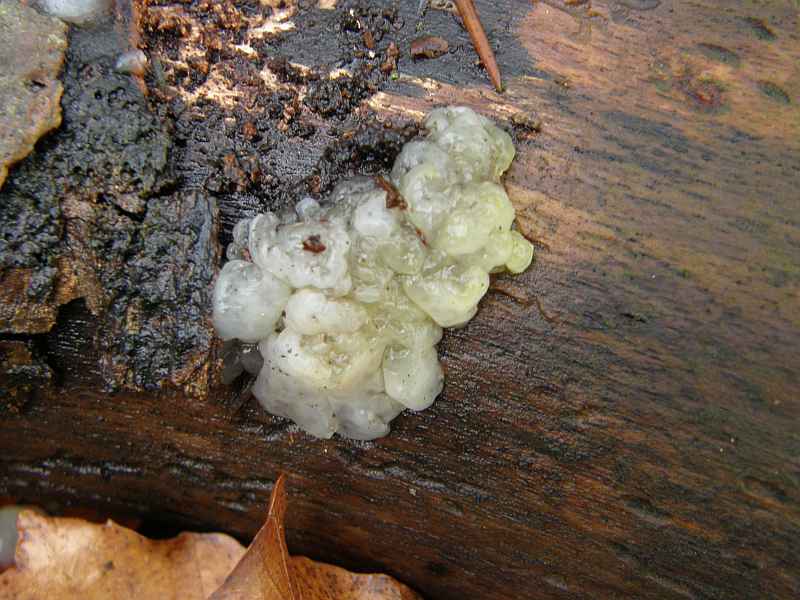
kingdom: Fungi
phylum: Basidiomycota
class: Agaricomycetes
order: Auriculariales
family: Hyaloriaceae
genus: Myxarium
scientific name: Myxarium nucleatum
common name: klar bævretop
